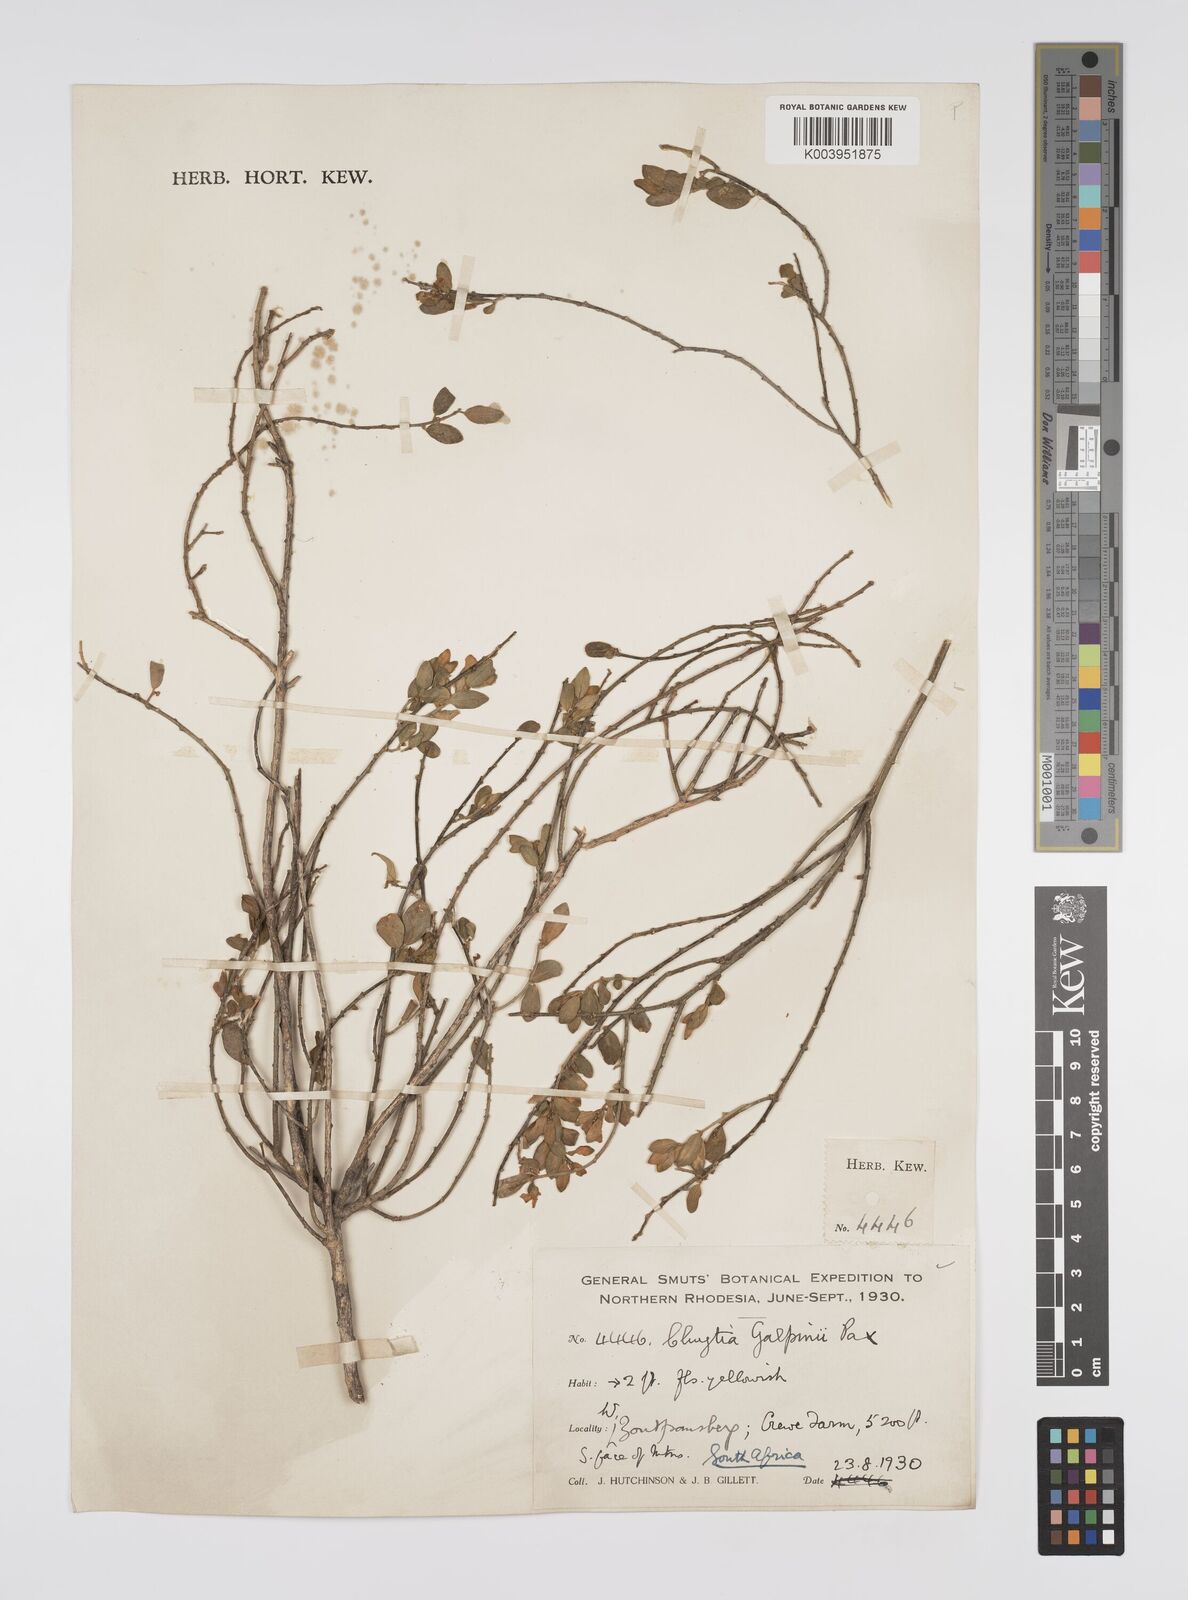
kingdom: Plantae
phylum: Tracheophyta
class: Magnoliopsida
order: Malpighiales
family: Peraceae
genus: Clutia
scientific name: Clutia galpinii
